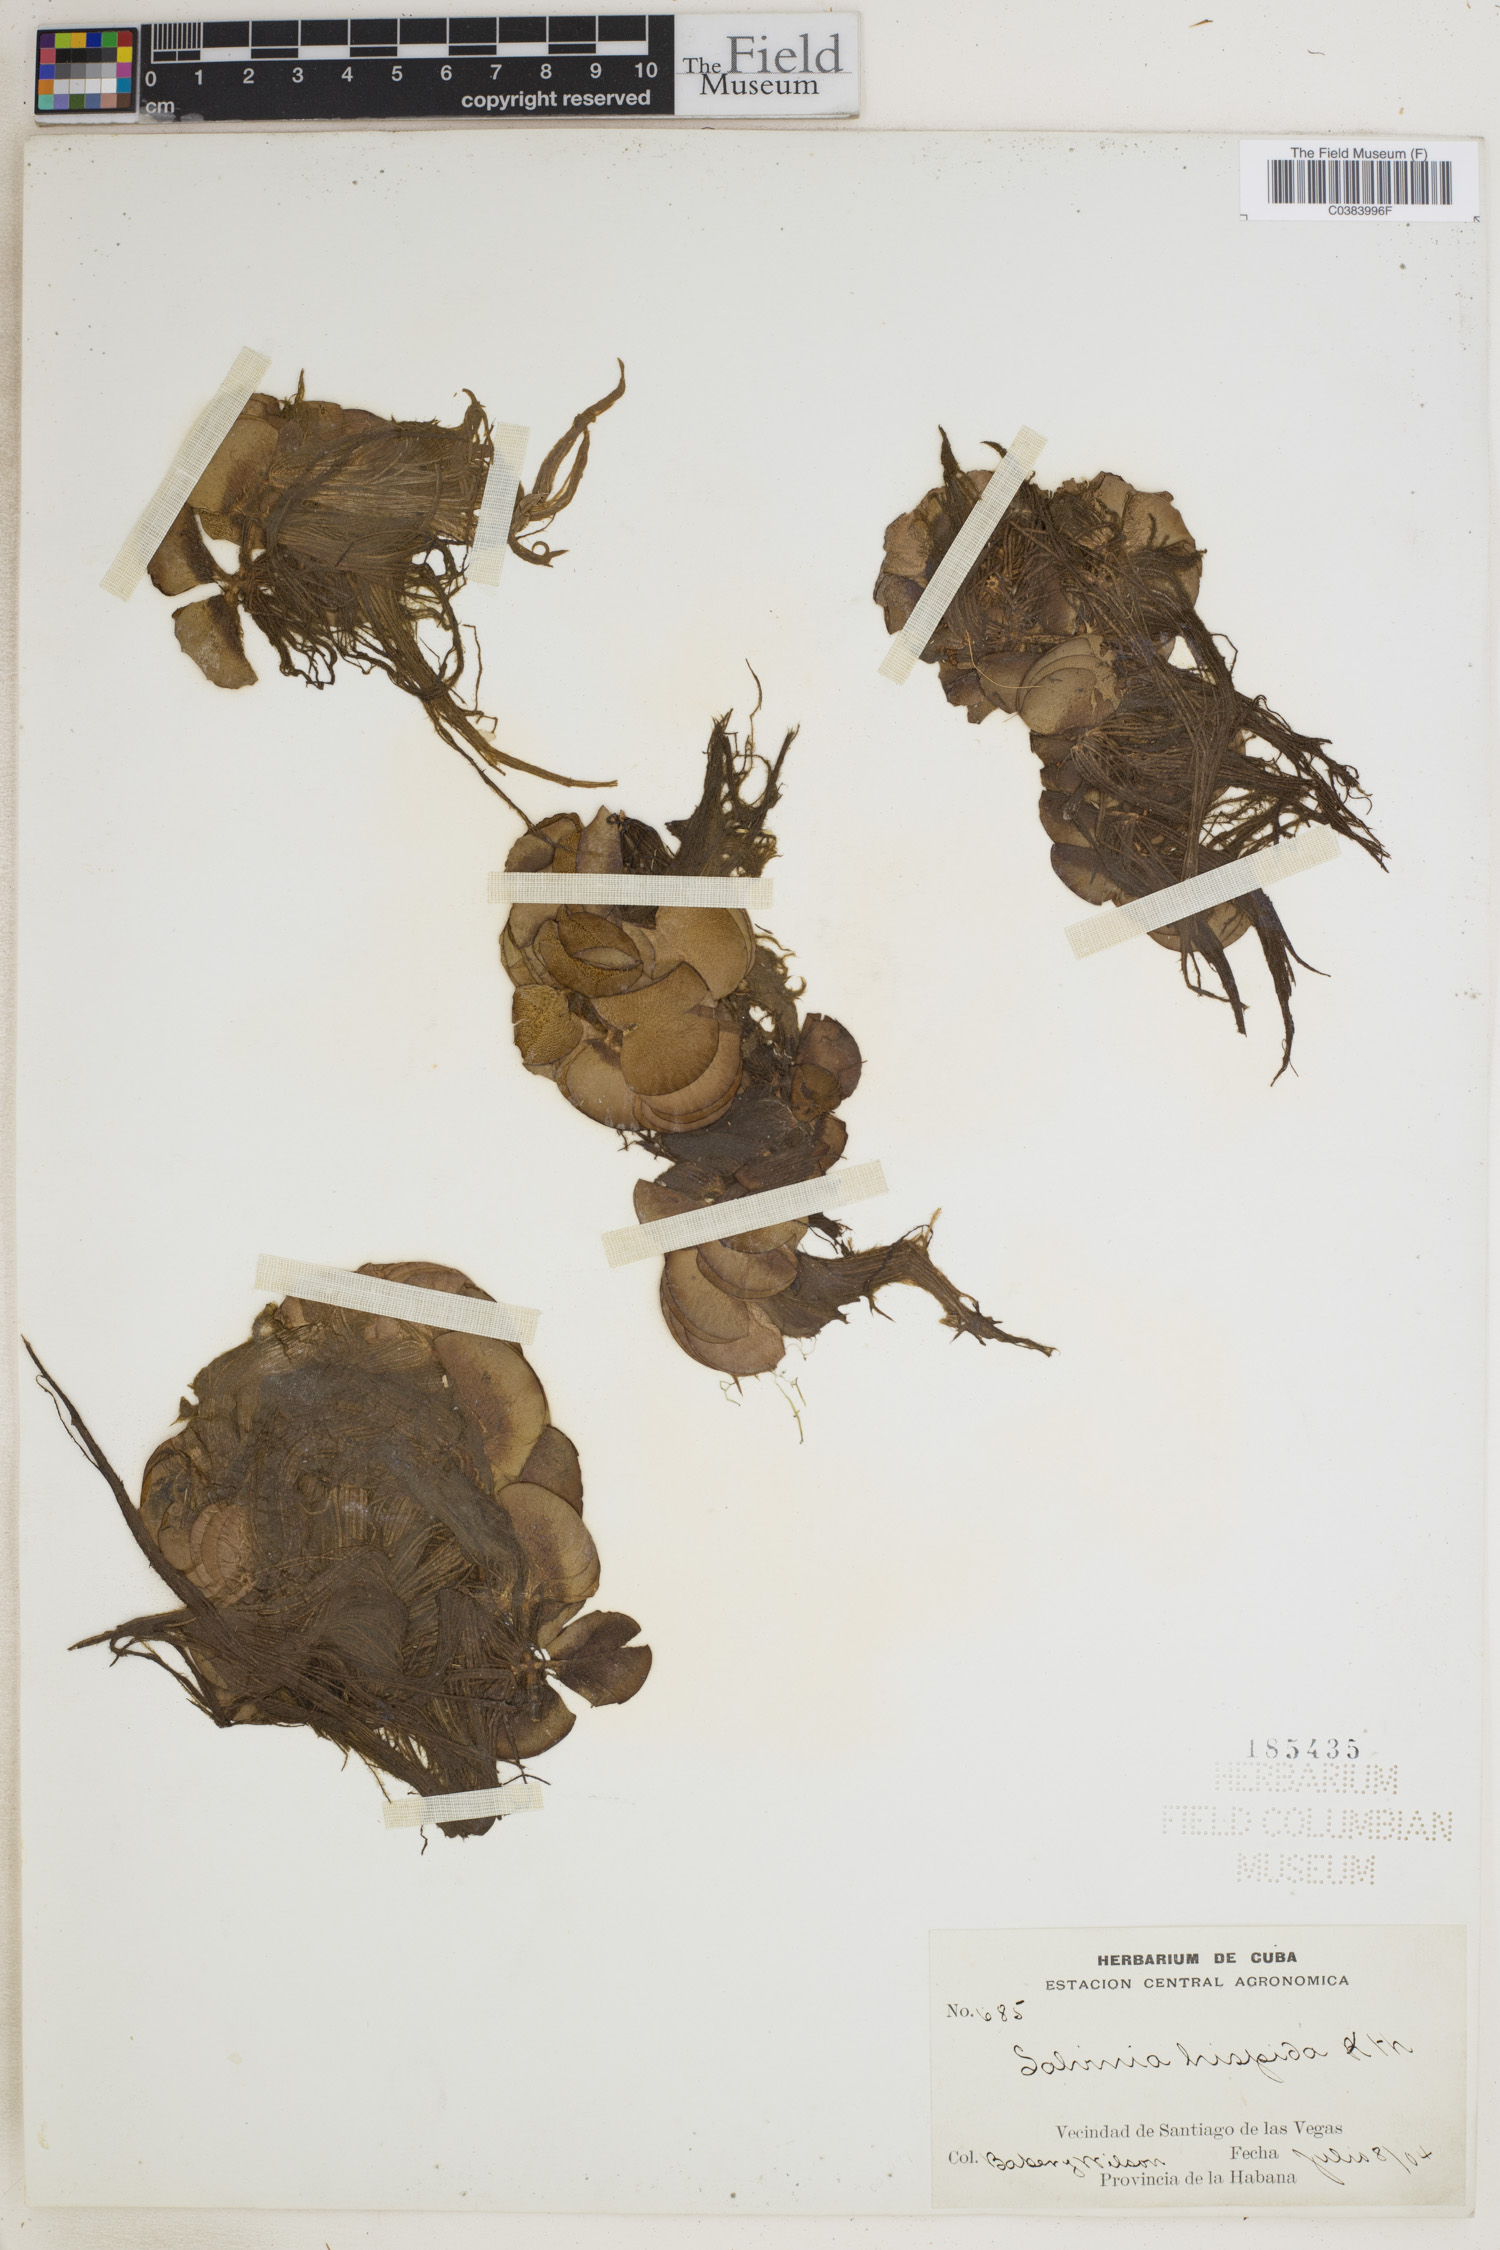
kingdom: Plantae
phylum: Tracheophyta
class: Polypodiopsida
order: Salviniales
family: Salviniaceae
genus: Salvinia
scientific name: Salvinia auriculata
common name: African payal
